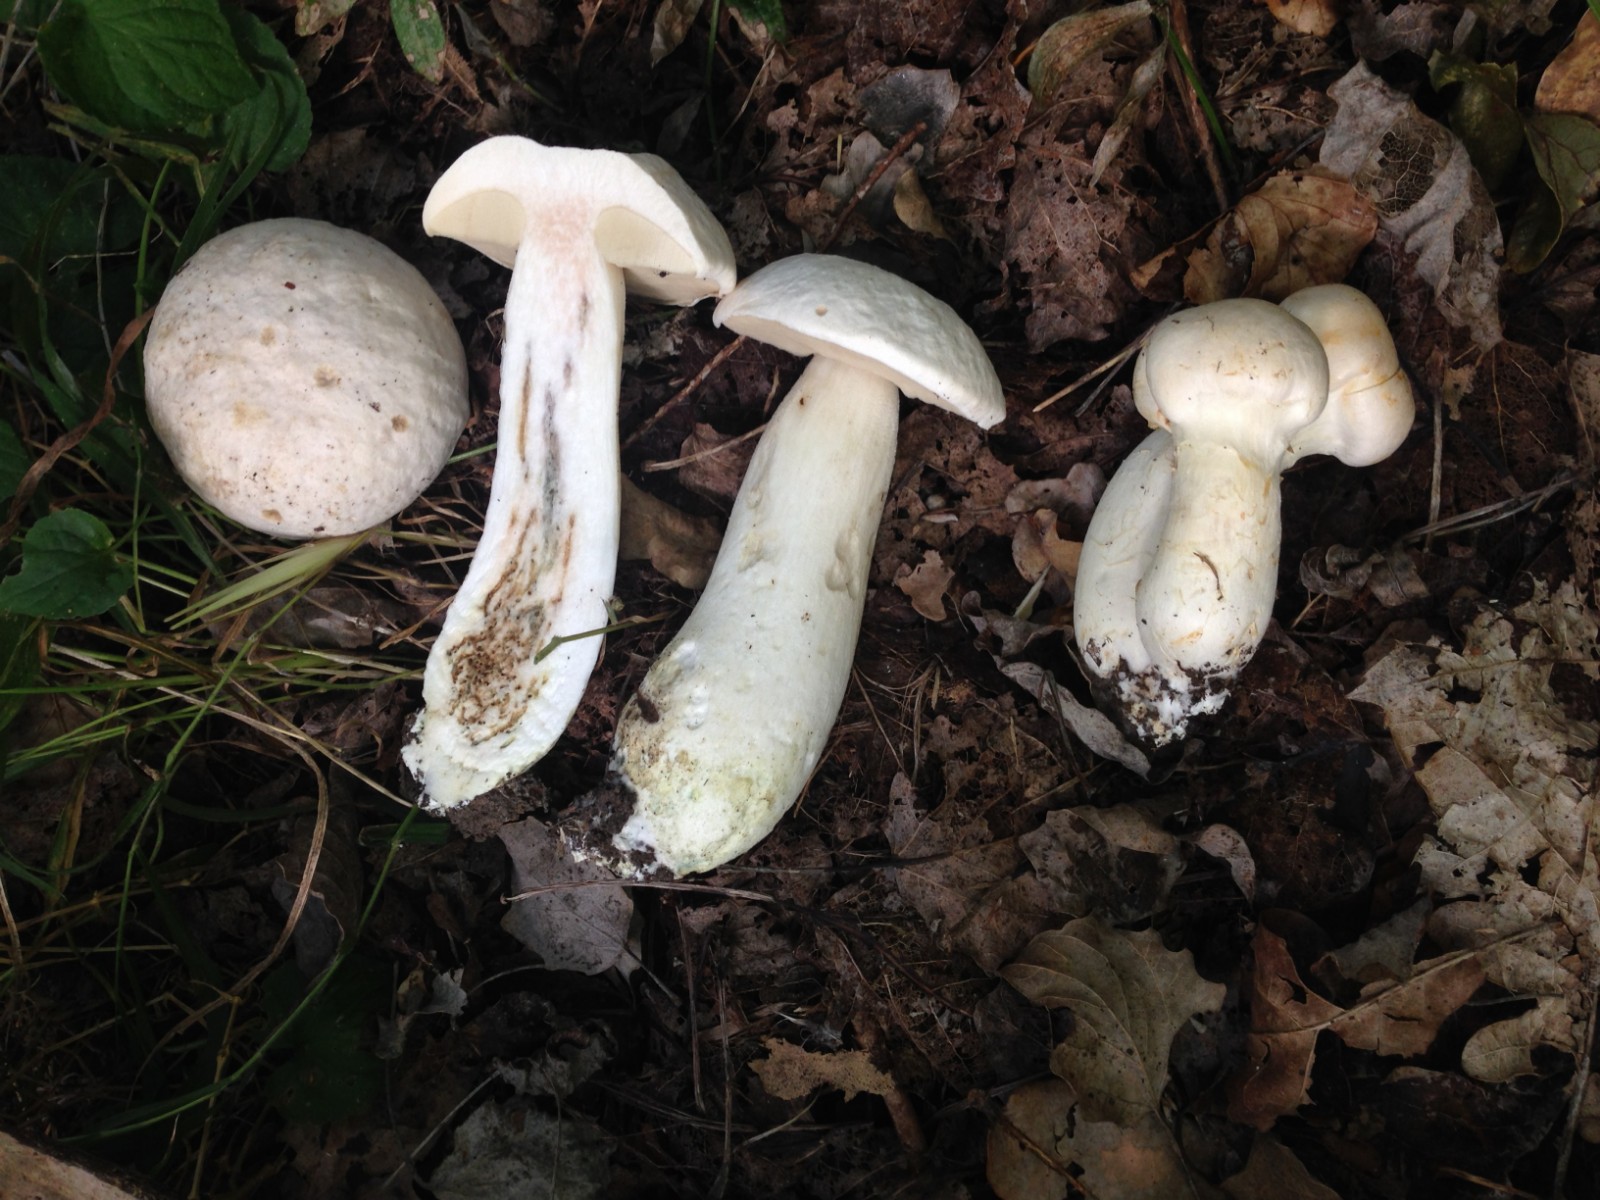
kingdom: Fungi
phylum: Basidiomycota
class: Agaricomycetes
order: Boletales
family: Boletaceae
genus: Leccinum
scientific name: Leccinum duriusculum
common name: poppel-skælrørhat
